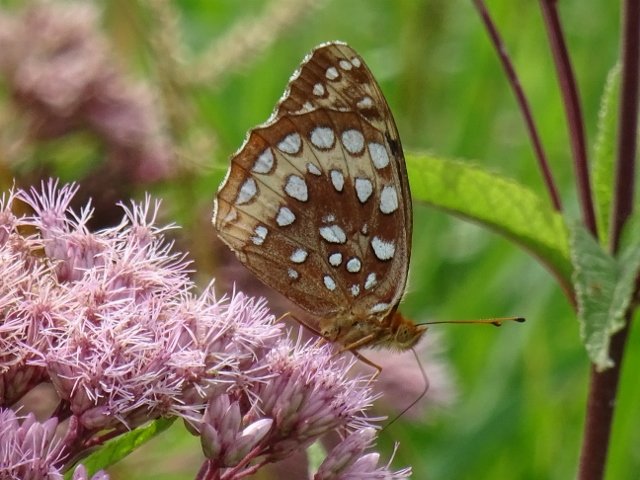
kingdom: Animalia
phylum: Arthropoda
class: Insecta
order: Lepidoptera
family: Nymphalidae
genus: Speyeria
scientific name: Speyeria cybele
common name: Great Spangled Fritillary
